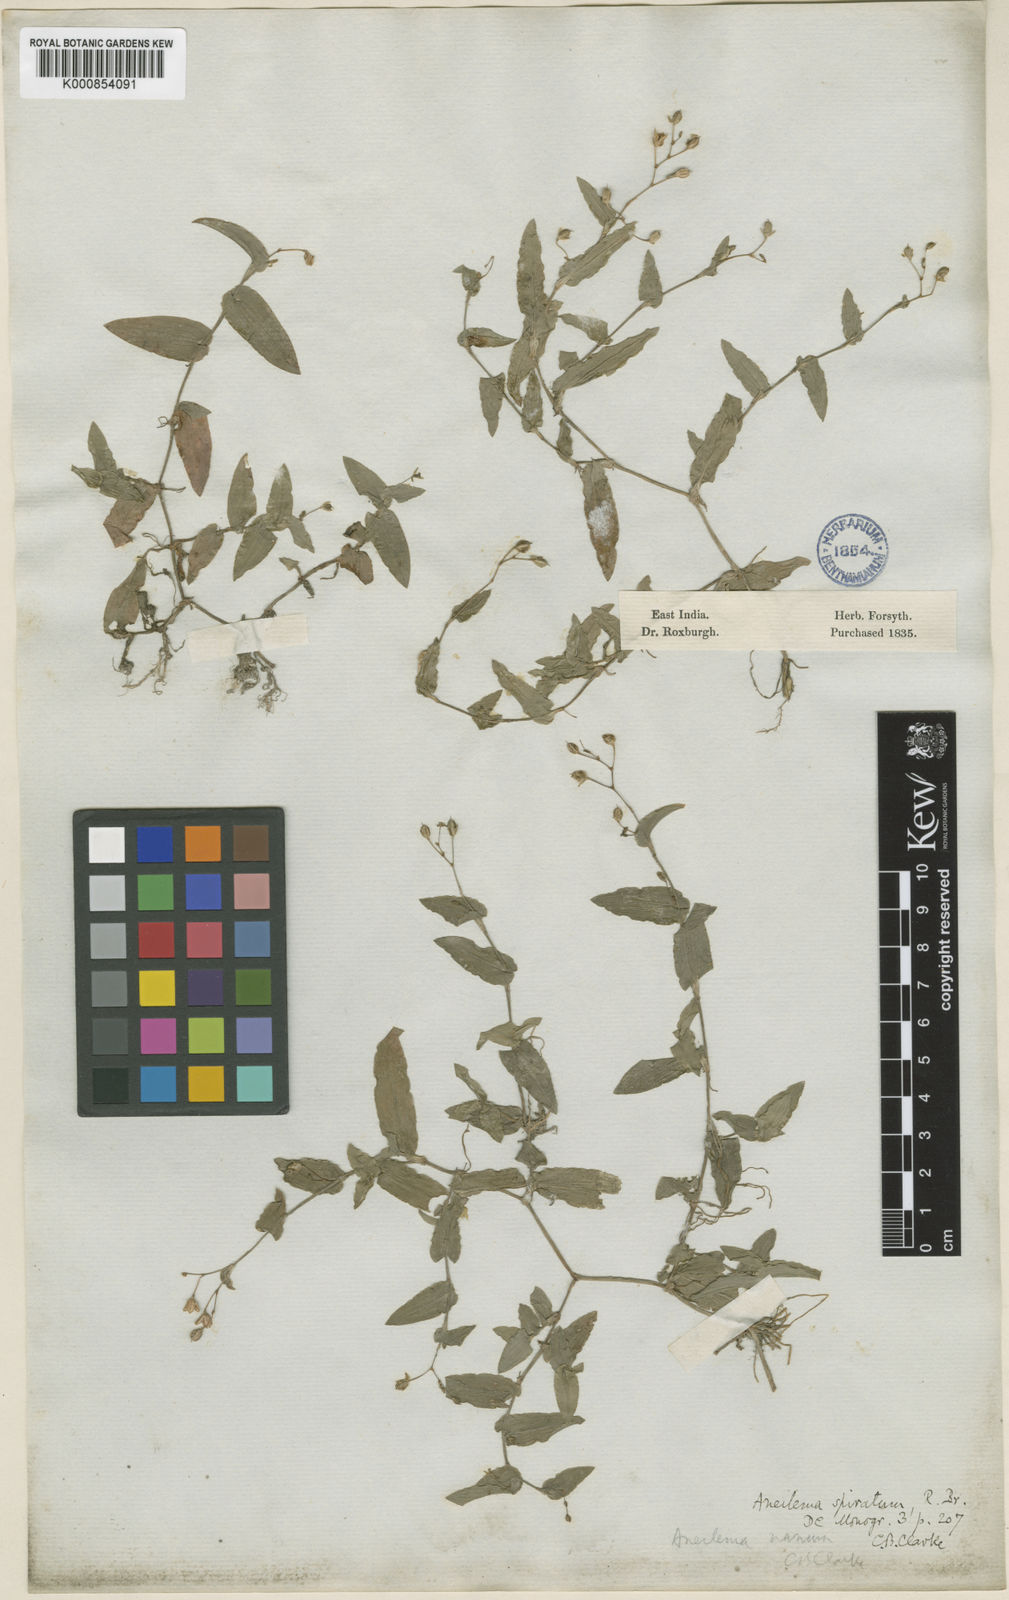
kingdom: Plantae
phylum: Tracheophyta
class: Liliopsida
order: Commelinales
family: Commelinaceae
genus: Murdannia
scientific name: Murdannia
